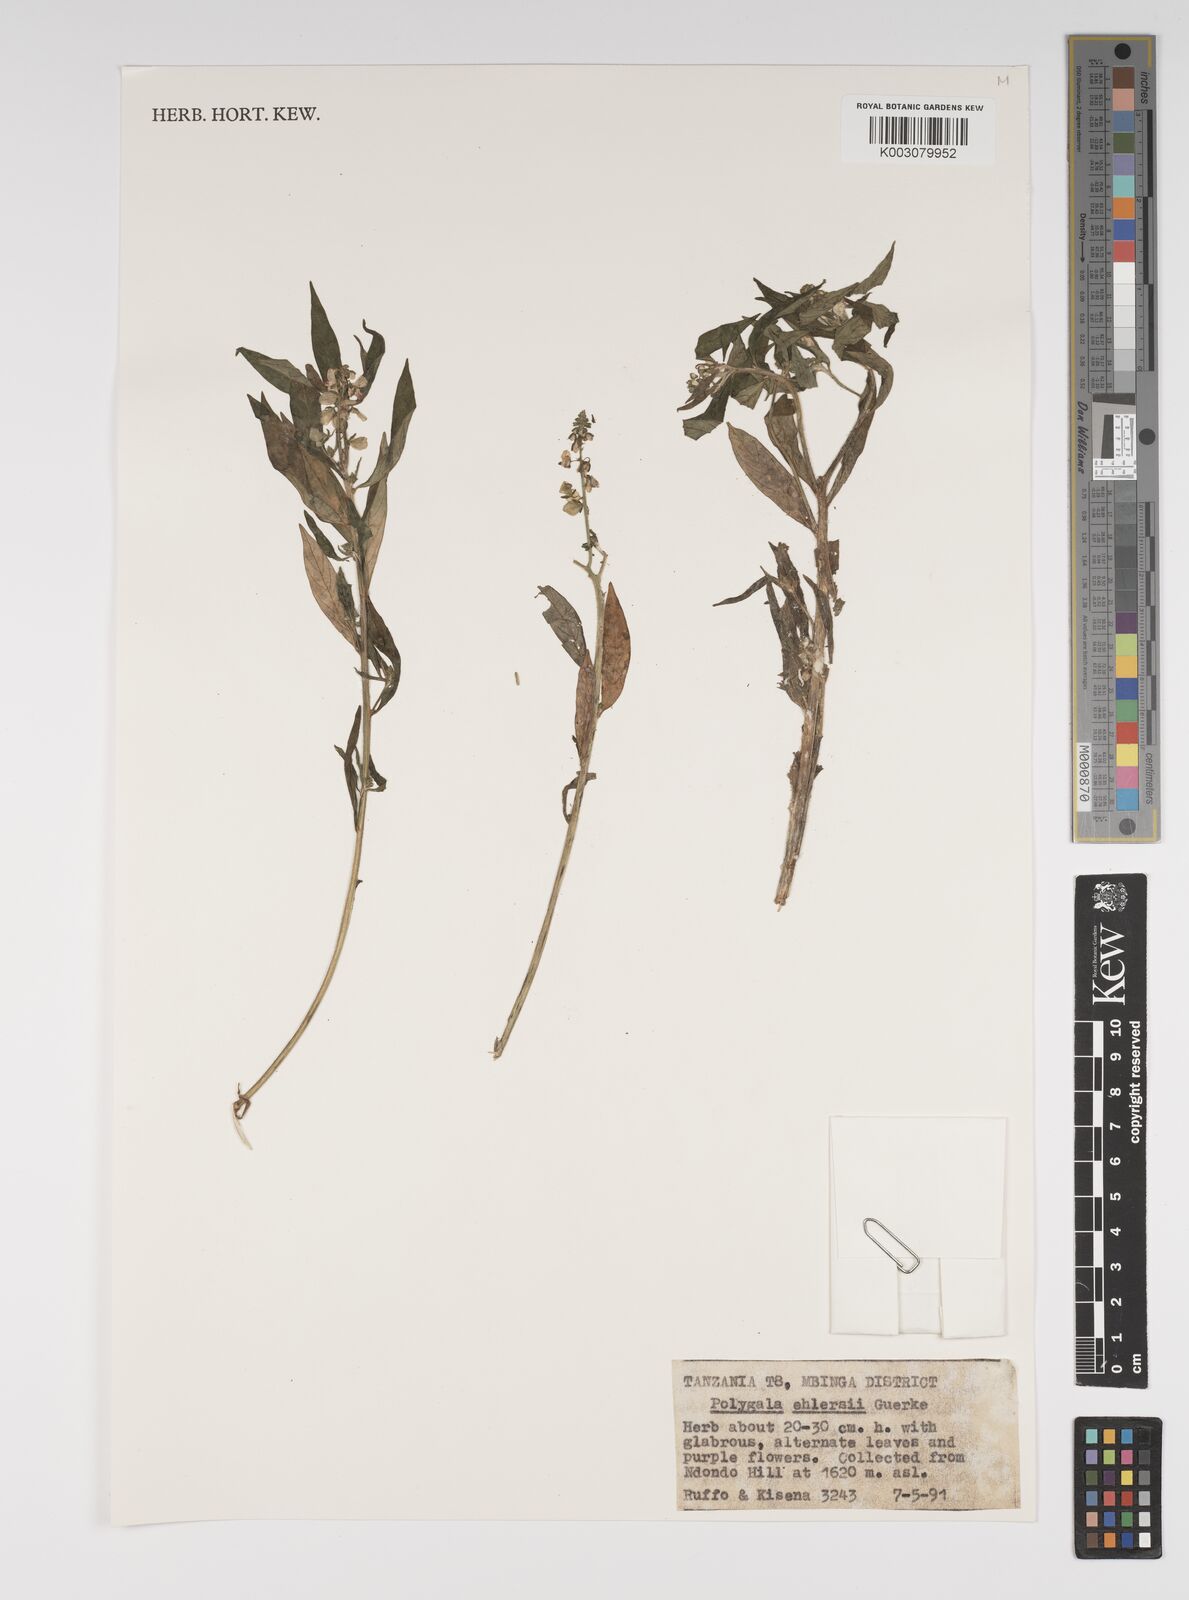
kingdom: Plantae
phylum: Tracheophyta
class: Magnoliopsida
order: Fabales
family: Polygalaceae
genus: Polygala
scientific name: Polygala persicariifolia
